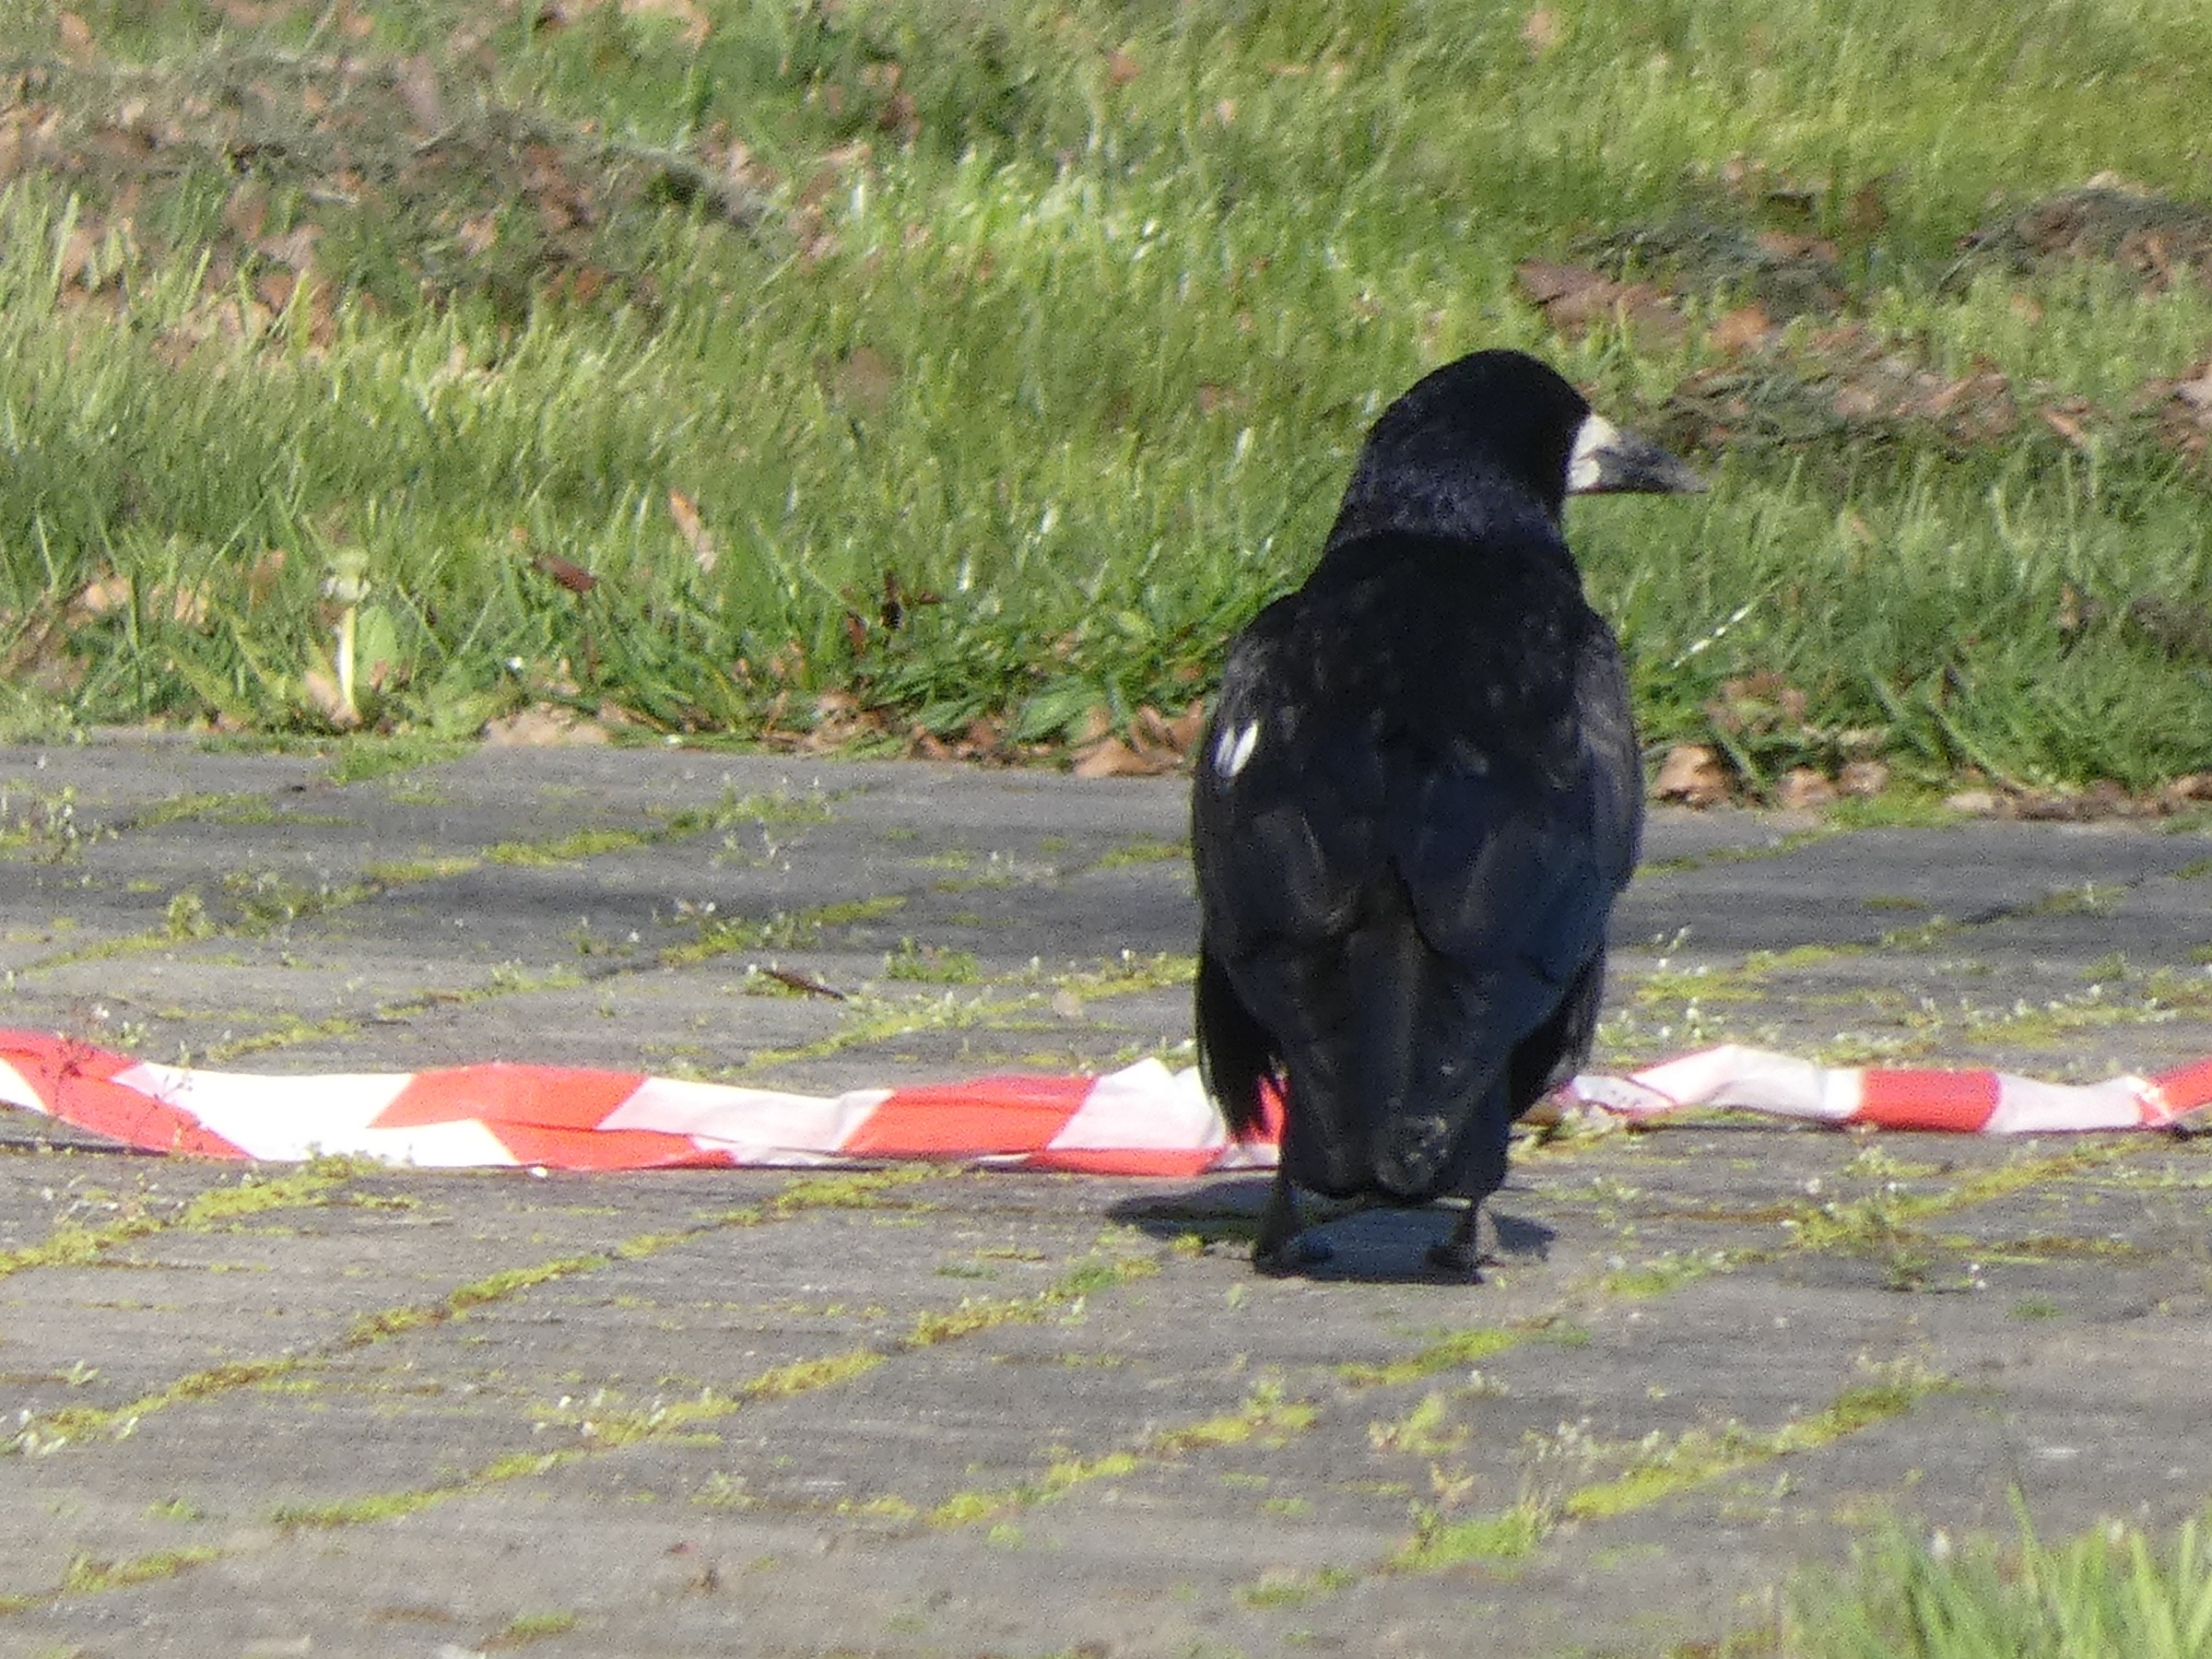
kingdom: Animalia
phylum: Chordata
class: Aves
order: Passeriformes
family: Corvidae
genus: Corvus
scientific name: Corvus frugilegus
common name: Råge
